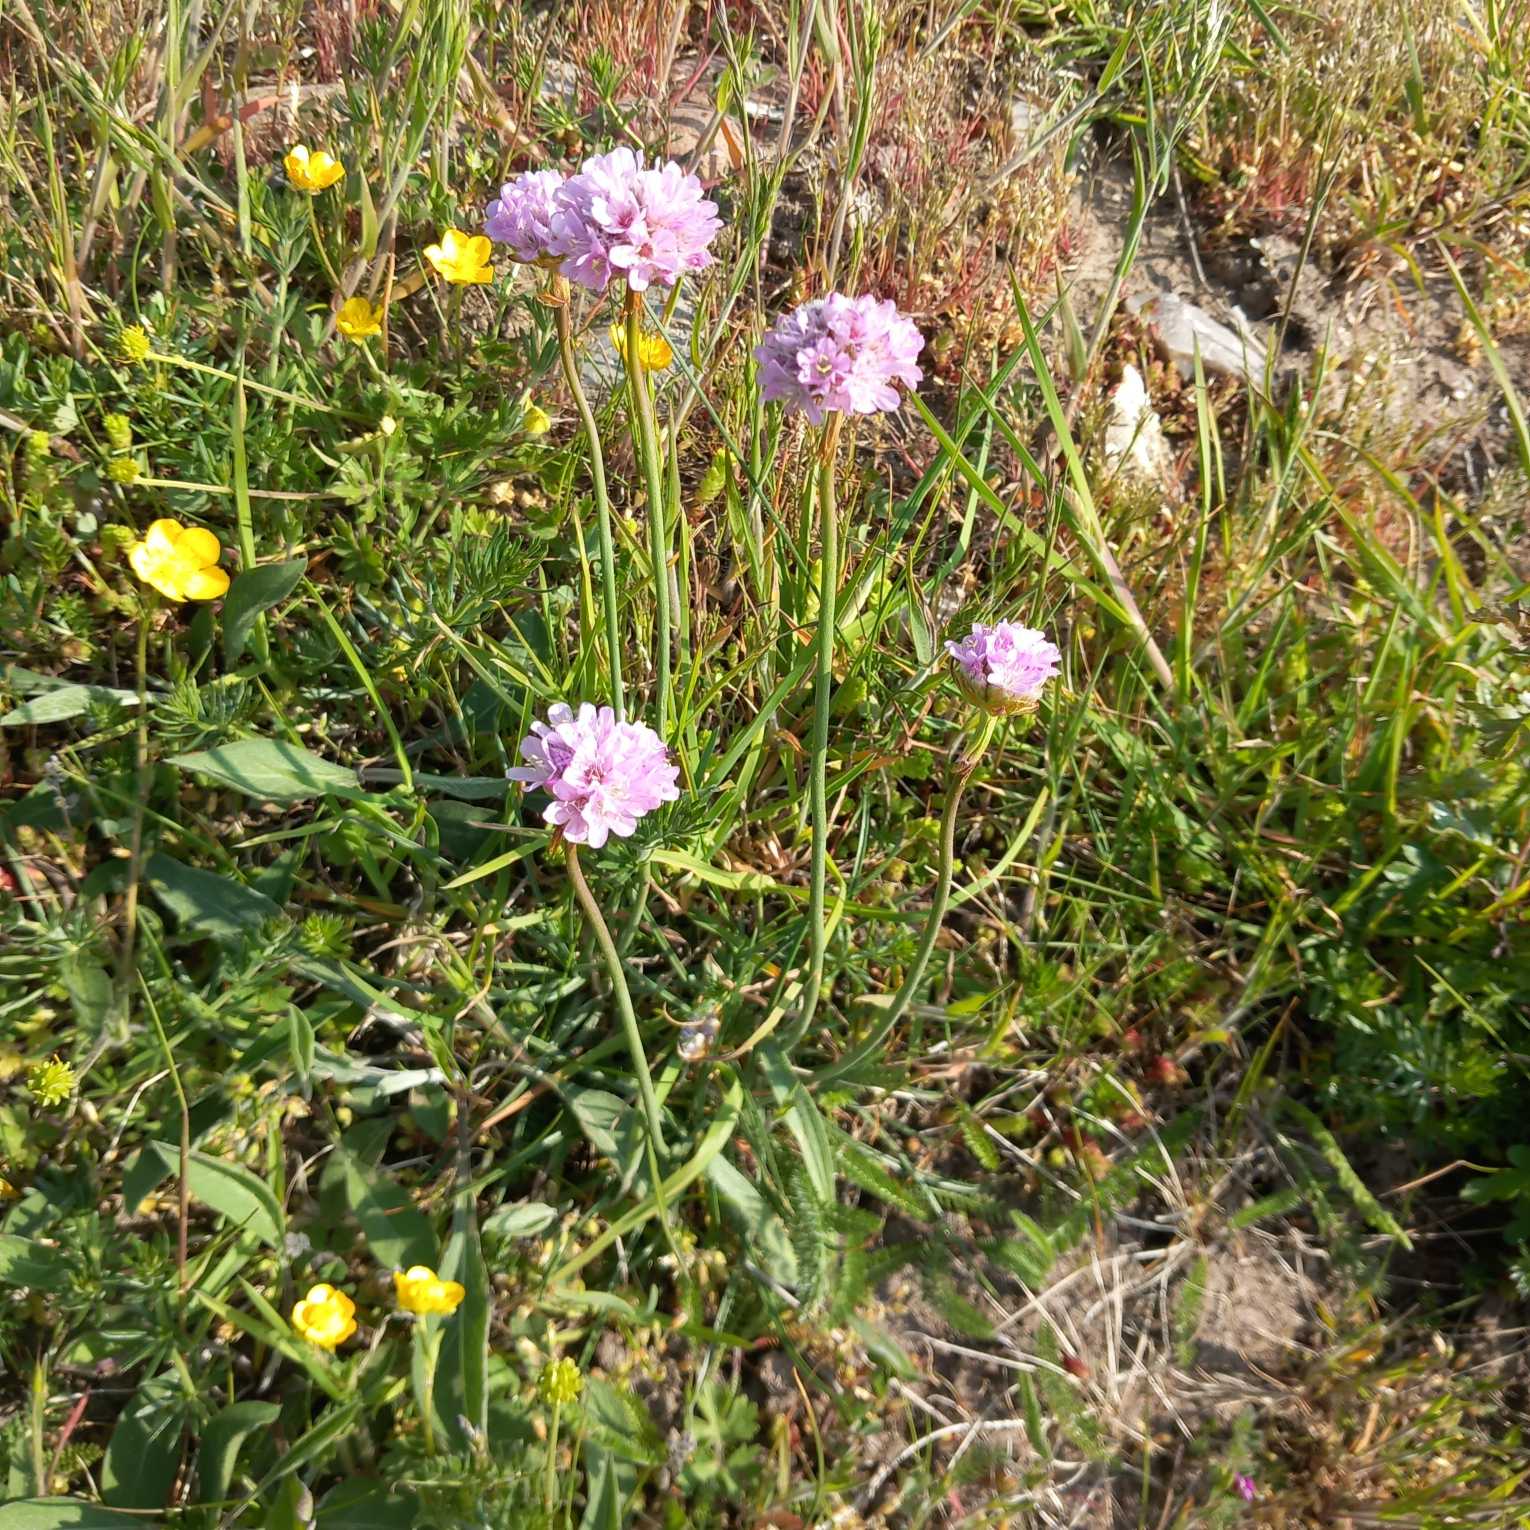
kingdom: Plantae
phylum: Tracheophyta
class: Magnoliopsida
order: Caryophyllales
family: Plumbaginaceae
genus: Armeria
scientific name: Armeria maritima
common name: Engelskgræs
